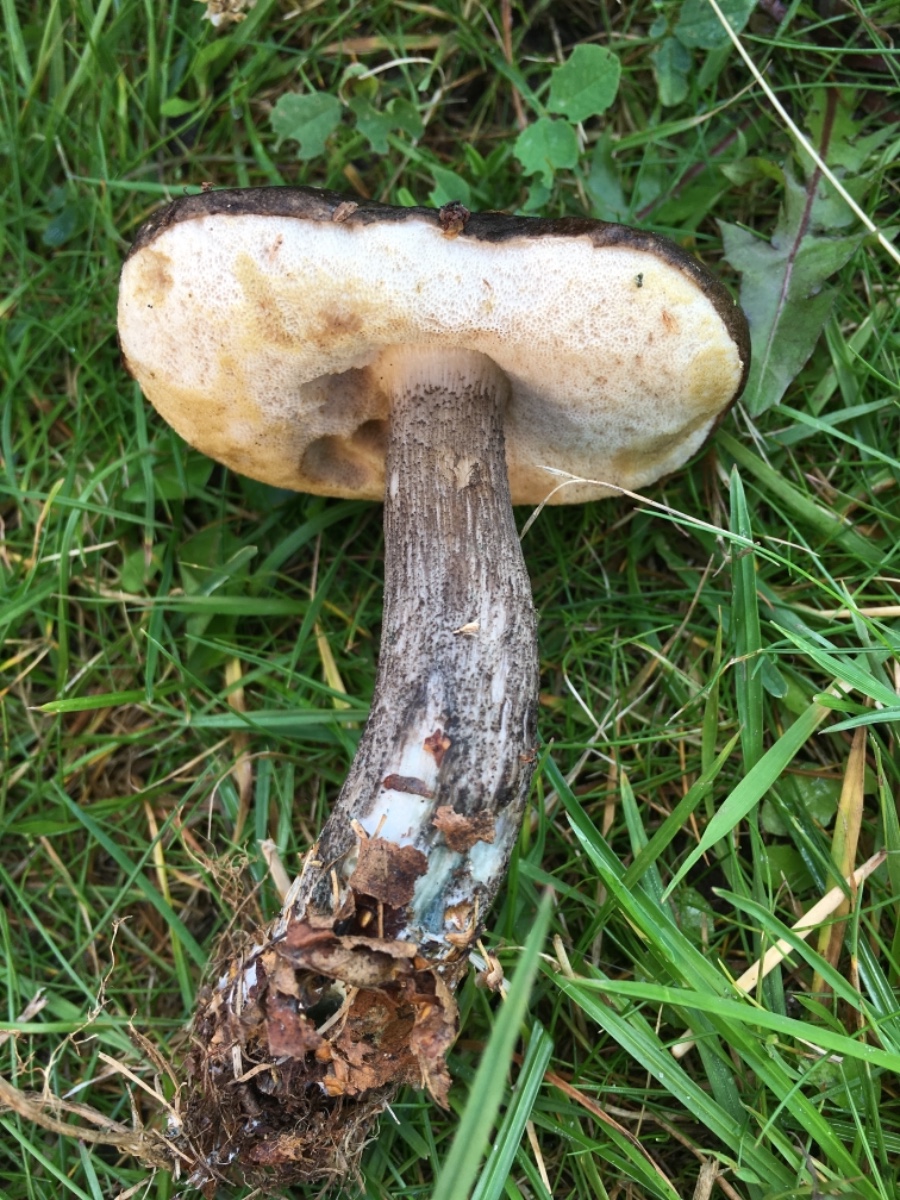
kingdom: Fungi
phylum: Basidiomycota
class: Agaricomycetes
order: Boletales
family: Boletaceae
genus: Leccinum
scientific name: Leccinum variicolor
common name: flammet skælrørhat
